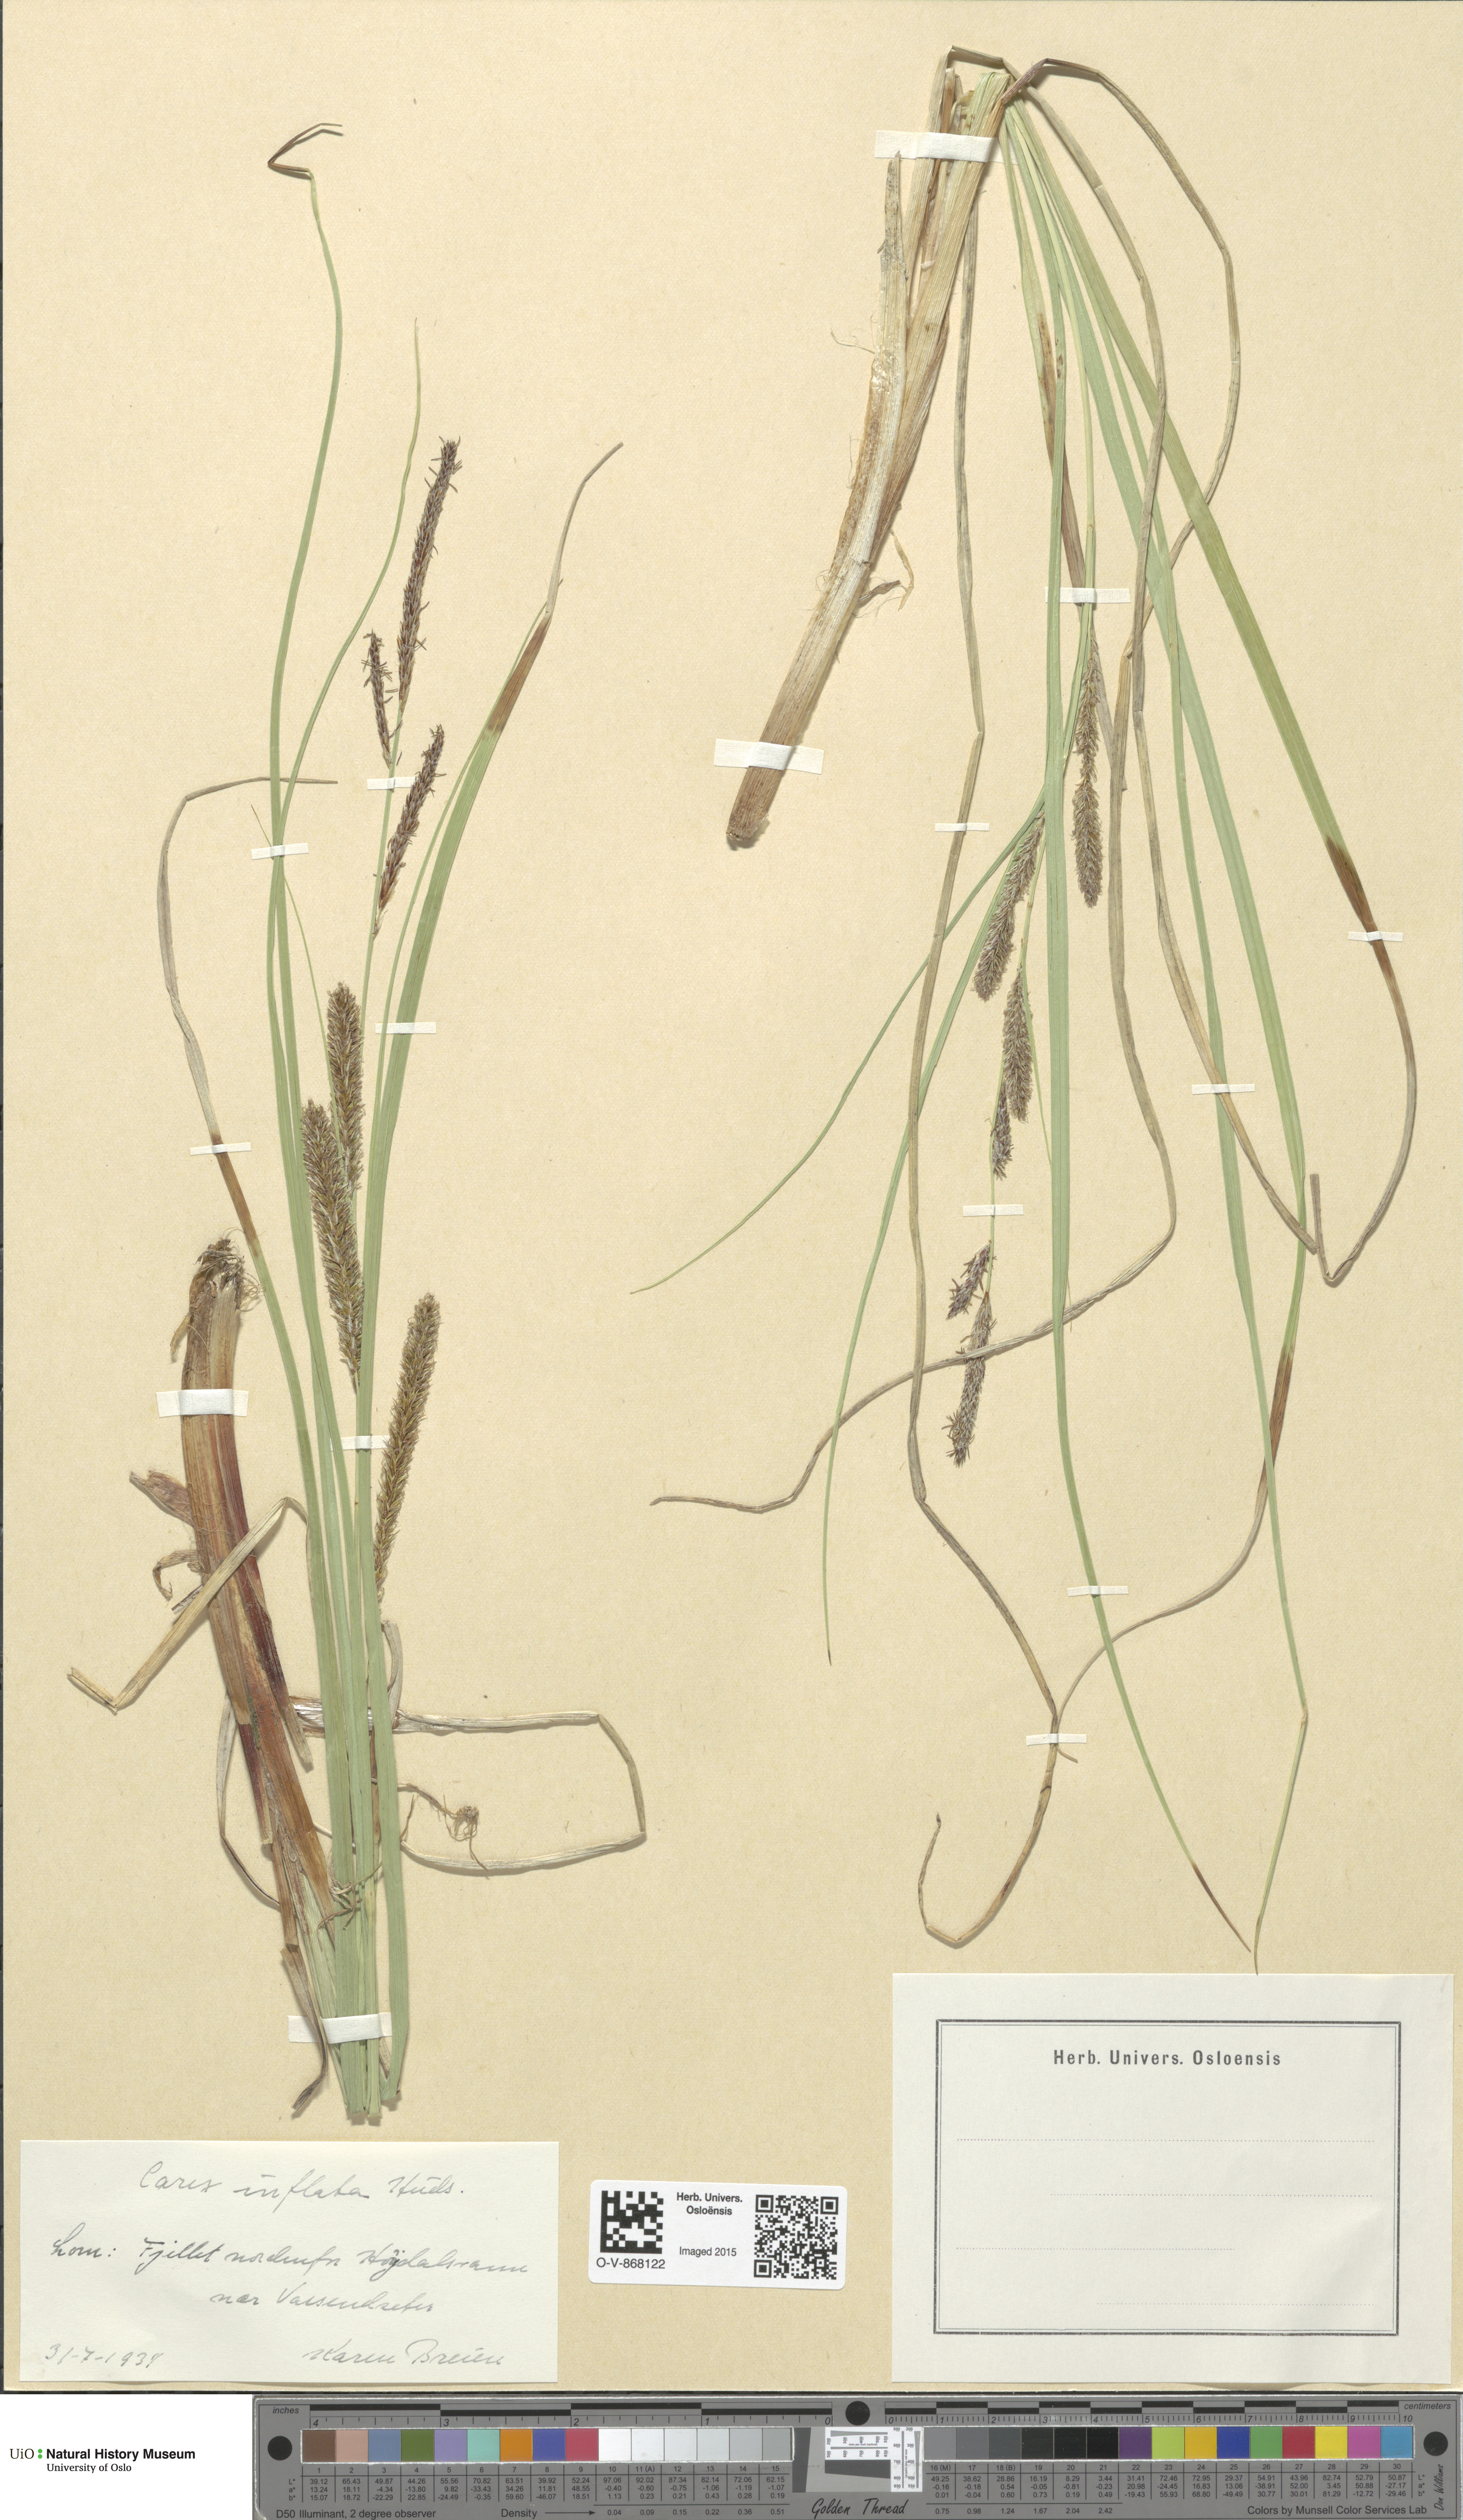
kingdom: Plantae
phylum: Tracheophyta
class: Liliopsida
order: Poales
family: Cyperaceae
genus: Carex
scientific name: Carex rostrata
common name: Bottle sedge
